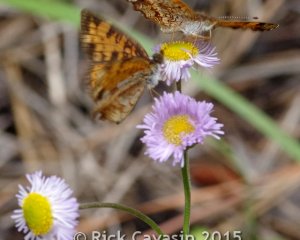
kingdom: Animalia
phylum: Arthropoda
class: Insecta
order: Lepidoptera
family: Nymphalidae
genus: Phyciodes
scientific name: Phyciodes tharos
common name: Pearl Crescent
